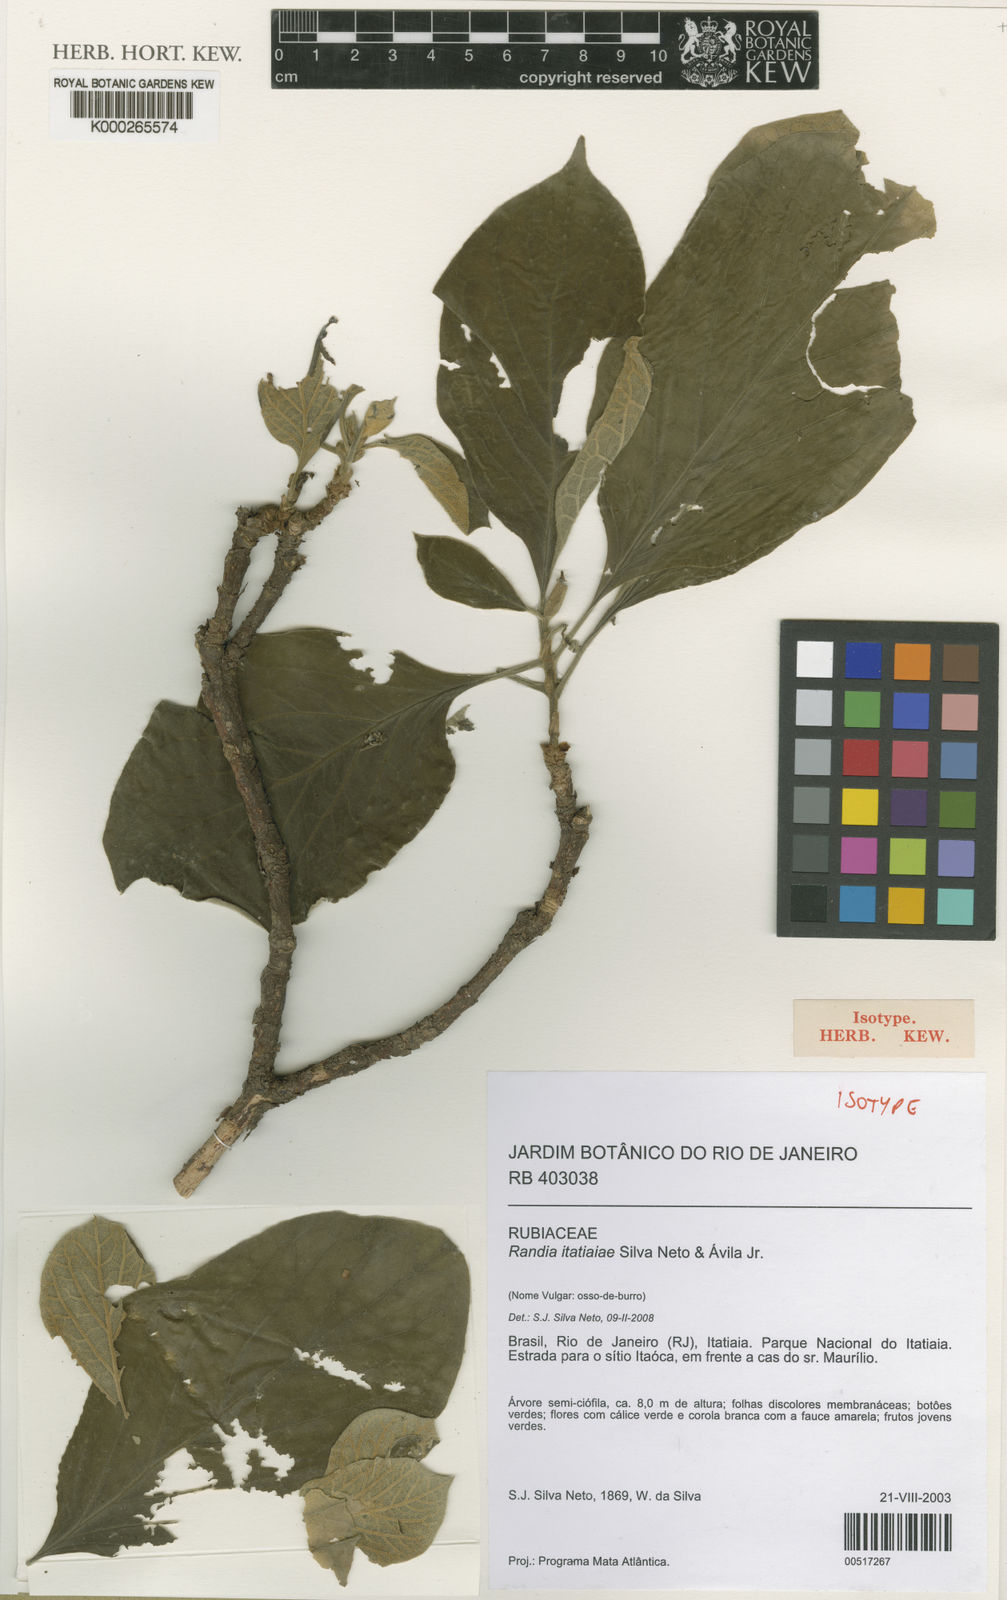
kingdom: Plantae
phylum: Tracheophyta
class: Magnoliopsida
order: Gentianales
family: Rubiaceae
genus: Randia
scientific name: Randia
